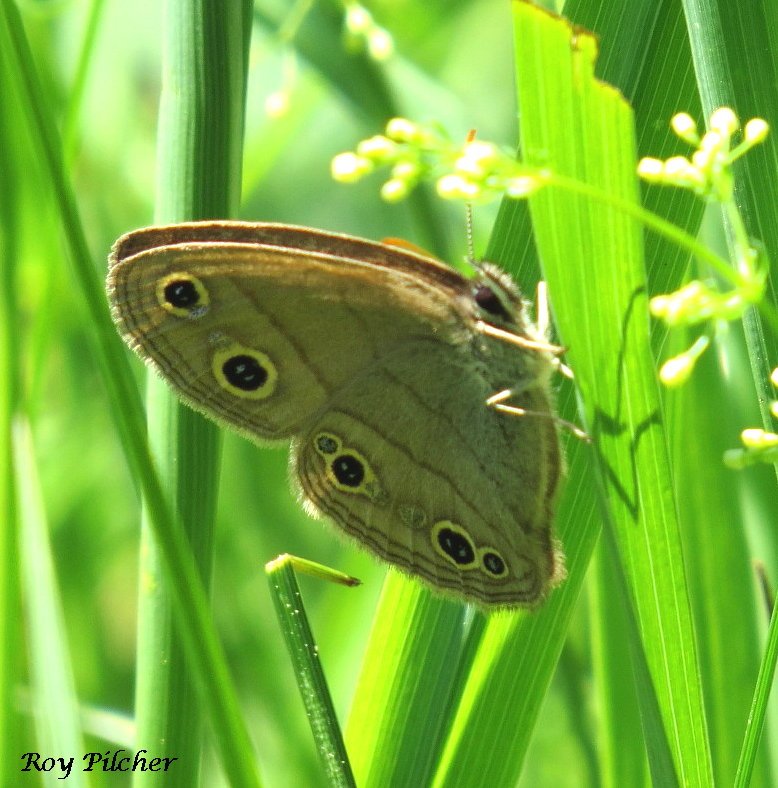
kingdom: Animalia
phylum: Arthropoda
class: Insecta
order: Lepidoptera
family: Nymphalidae
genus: Euptychia
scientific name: Euptychia cymela
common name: Little Wood Satyr
